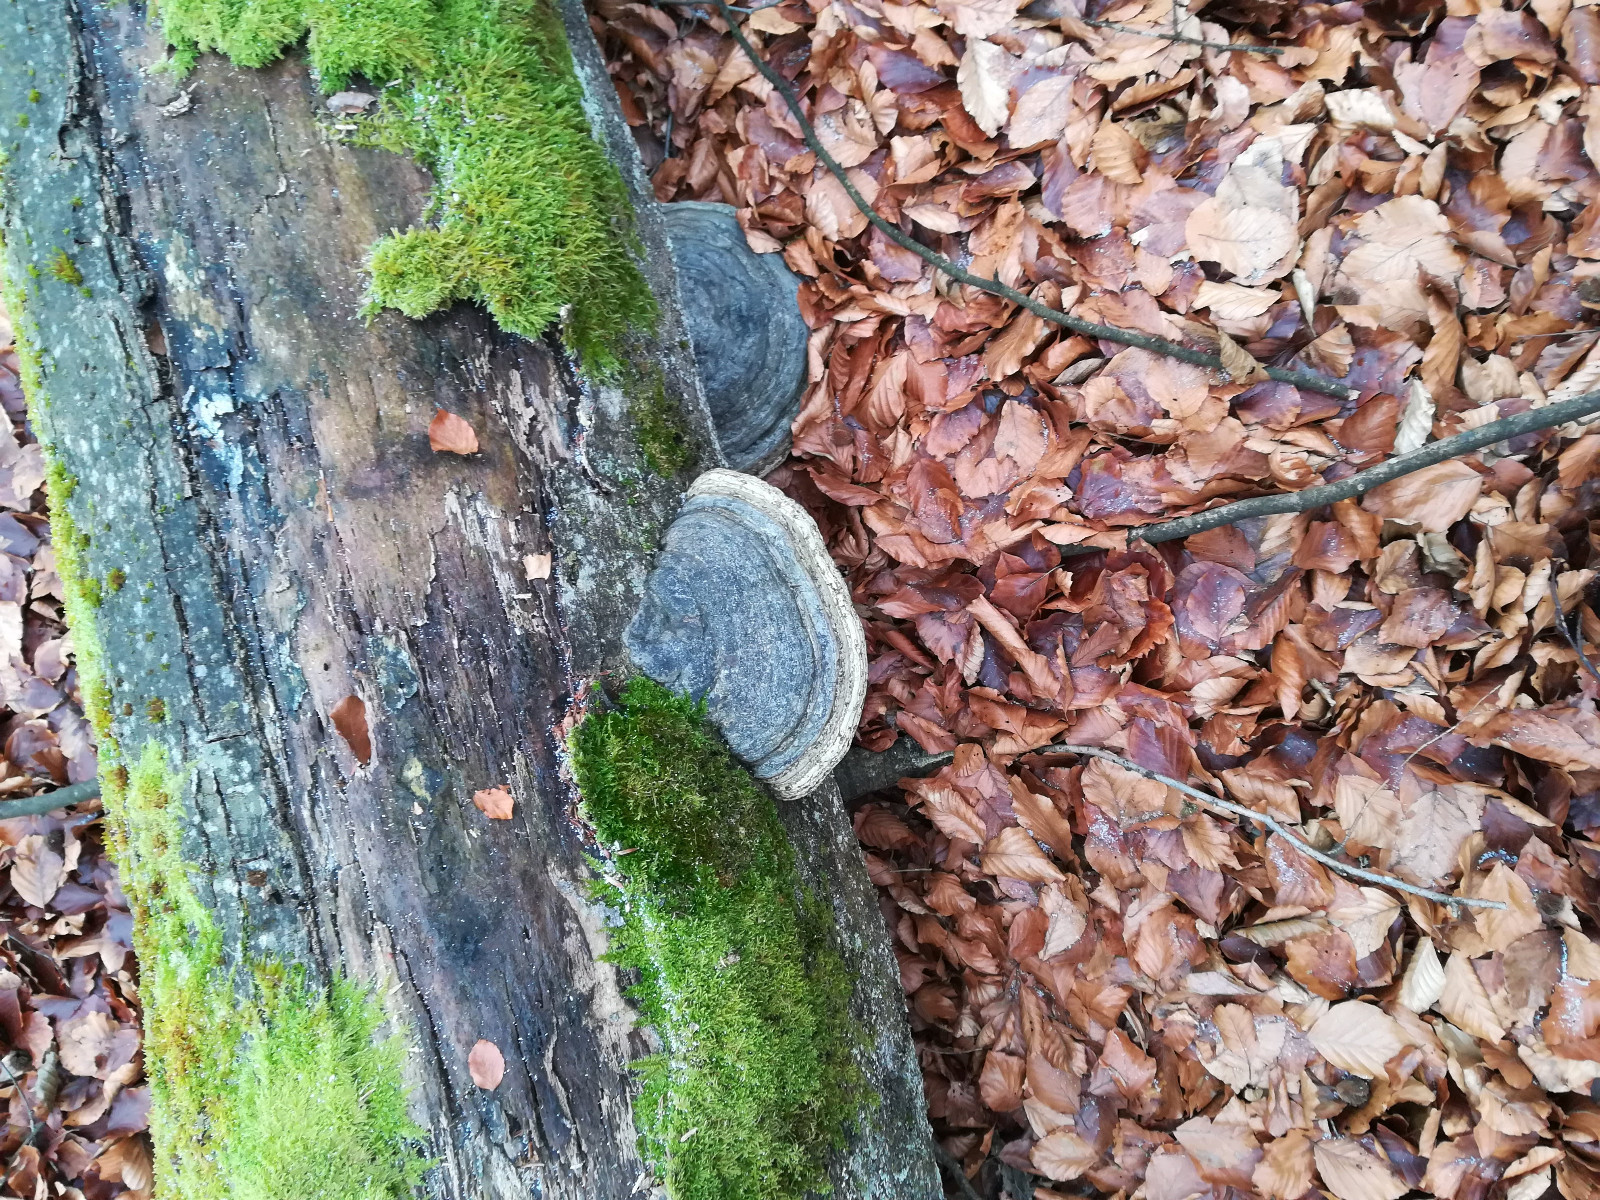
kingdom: Fungi
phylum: Basidiomycota
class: Agaricomycetes
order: Polyporales
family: Polyporaceae
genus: Fomes
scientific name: Fomes fomentarius
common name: tøndersvamp
